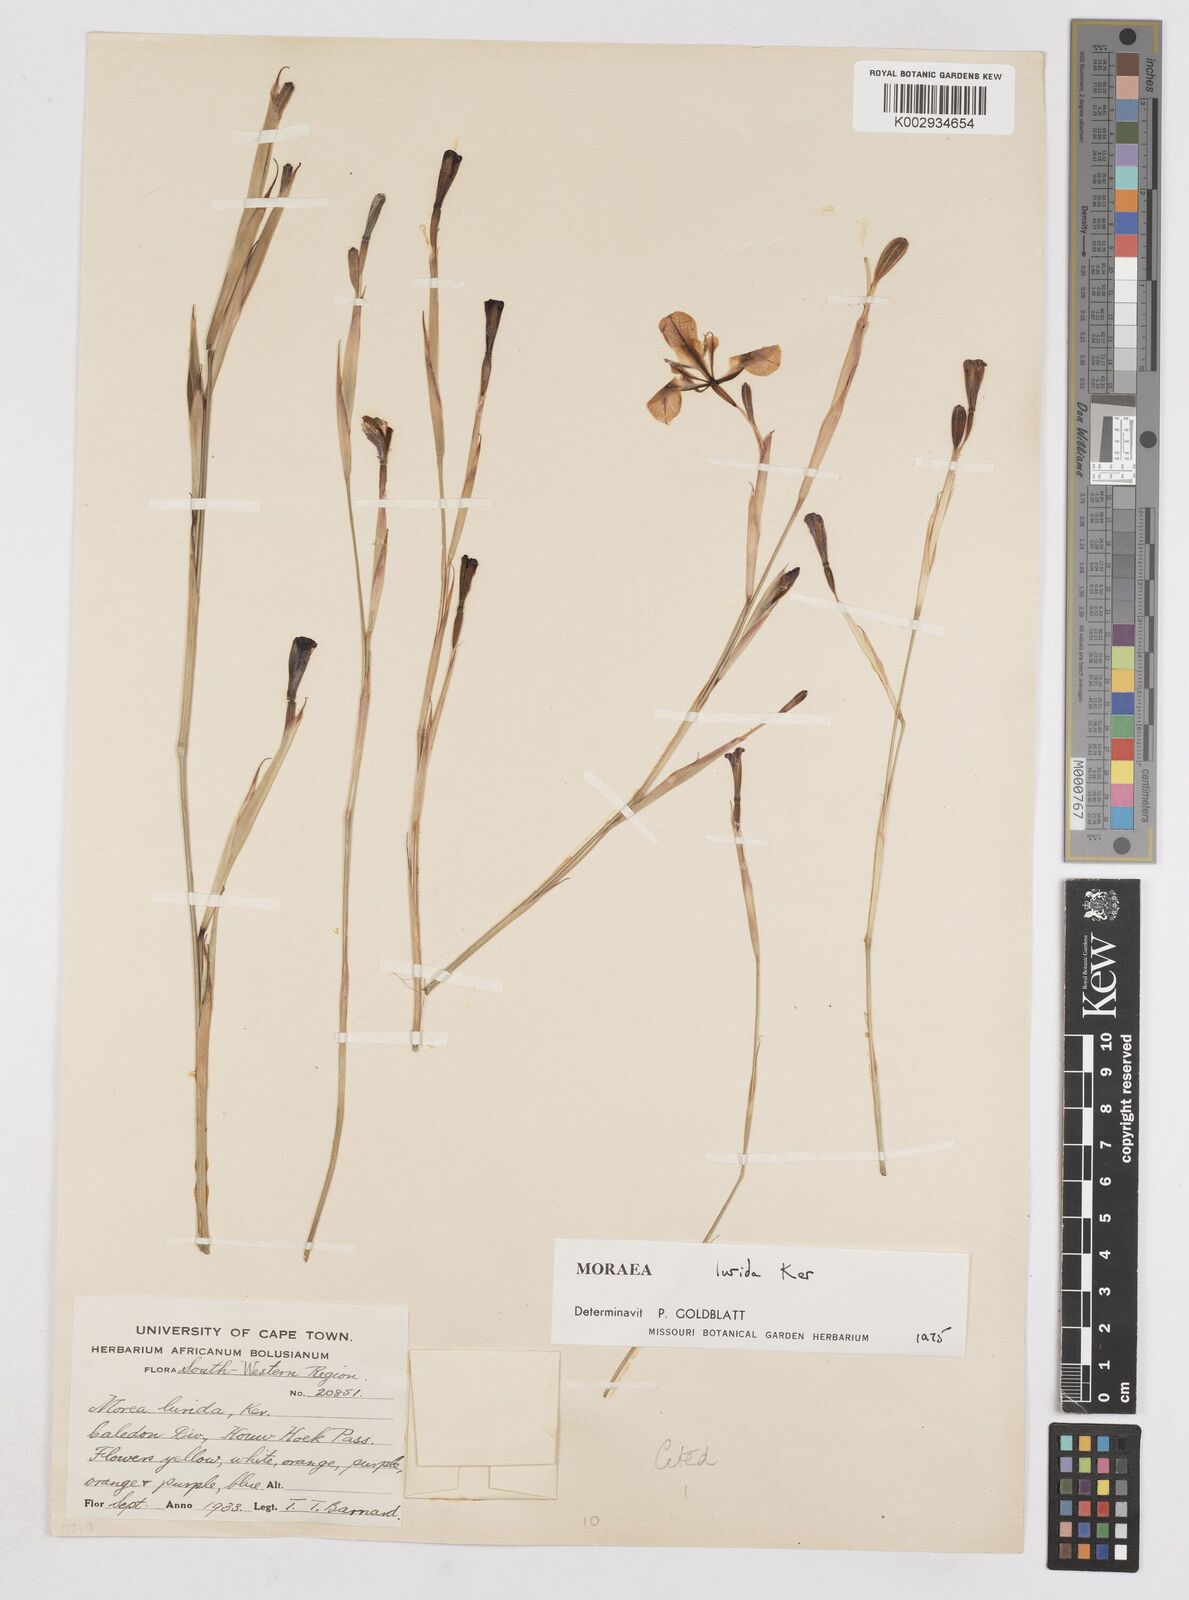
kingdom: Plantae
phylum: Tracheophyta
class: Liliopsida
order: Asparagales
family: Iridaceae
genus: Moraea
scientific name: Moraea lurida
